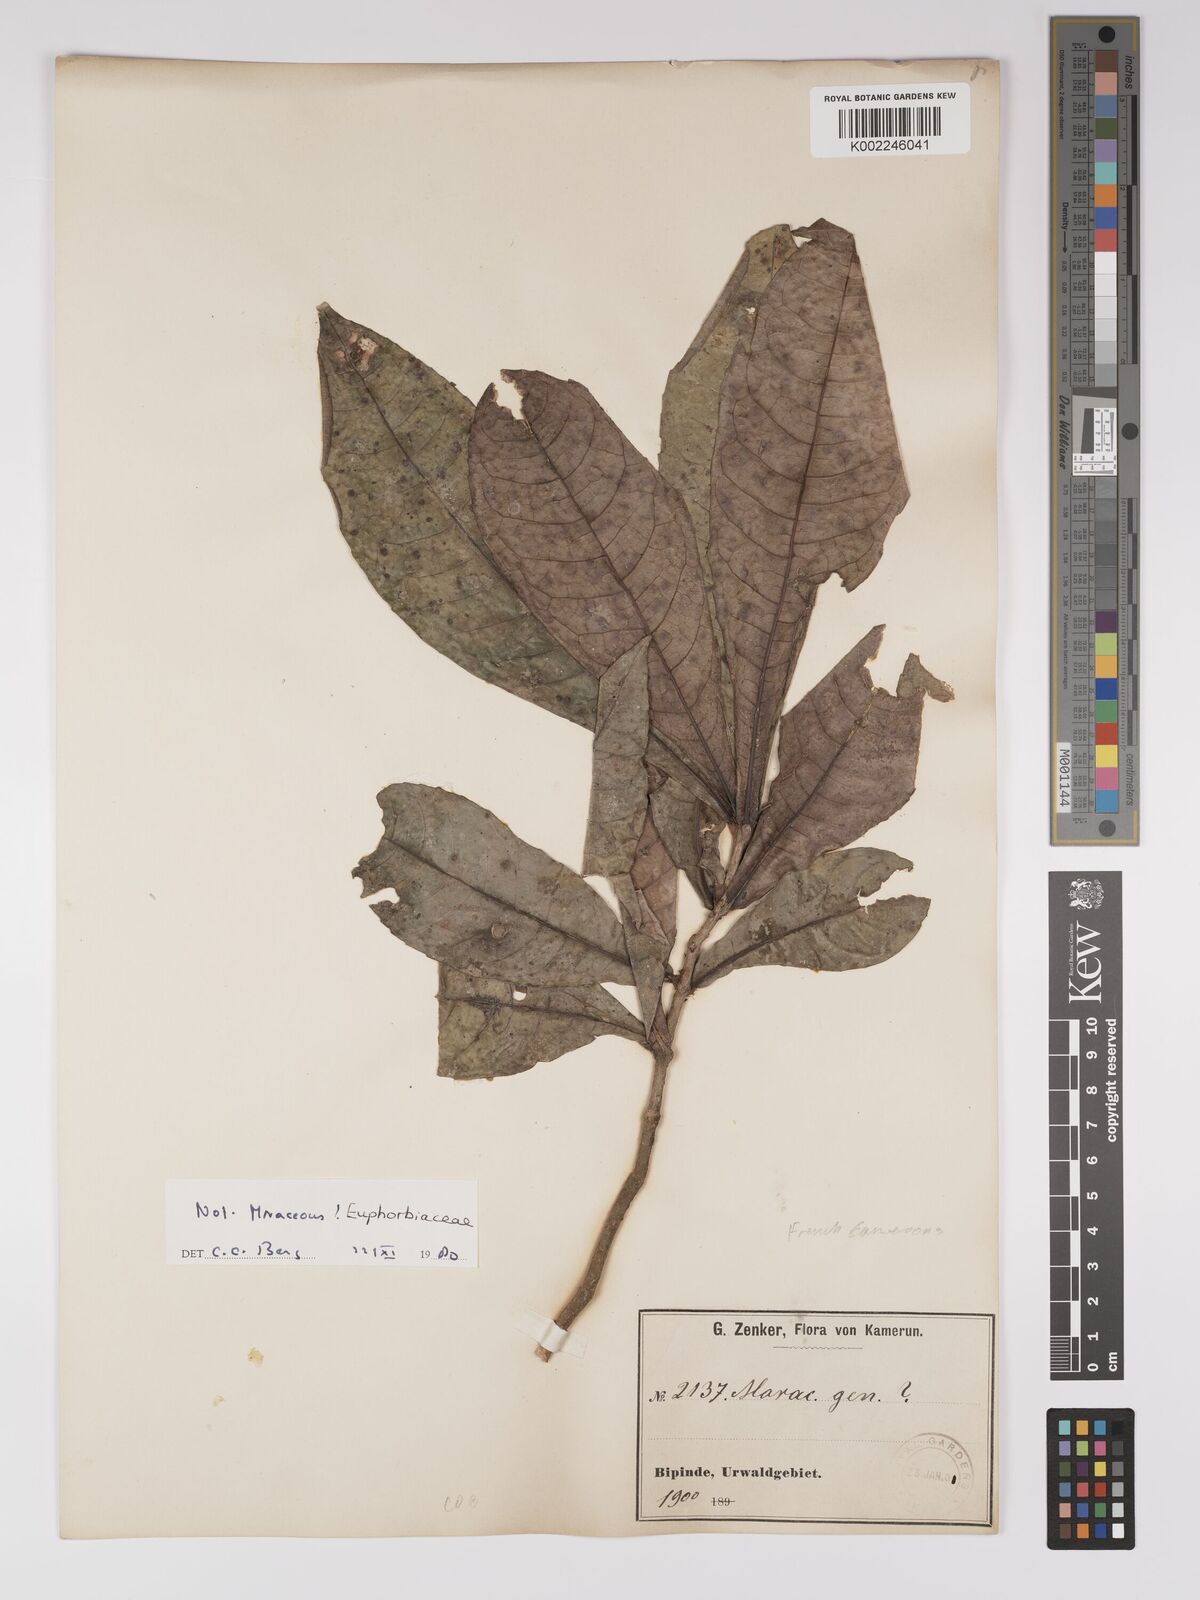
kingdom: Plantae
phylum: Tracheophyta
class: Magnoliopsida
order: Malpighiales
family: Euphorbiaceae
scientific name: Euphorbiaceae
